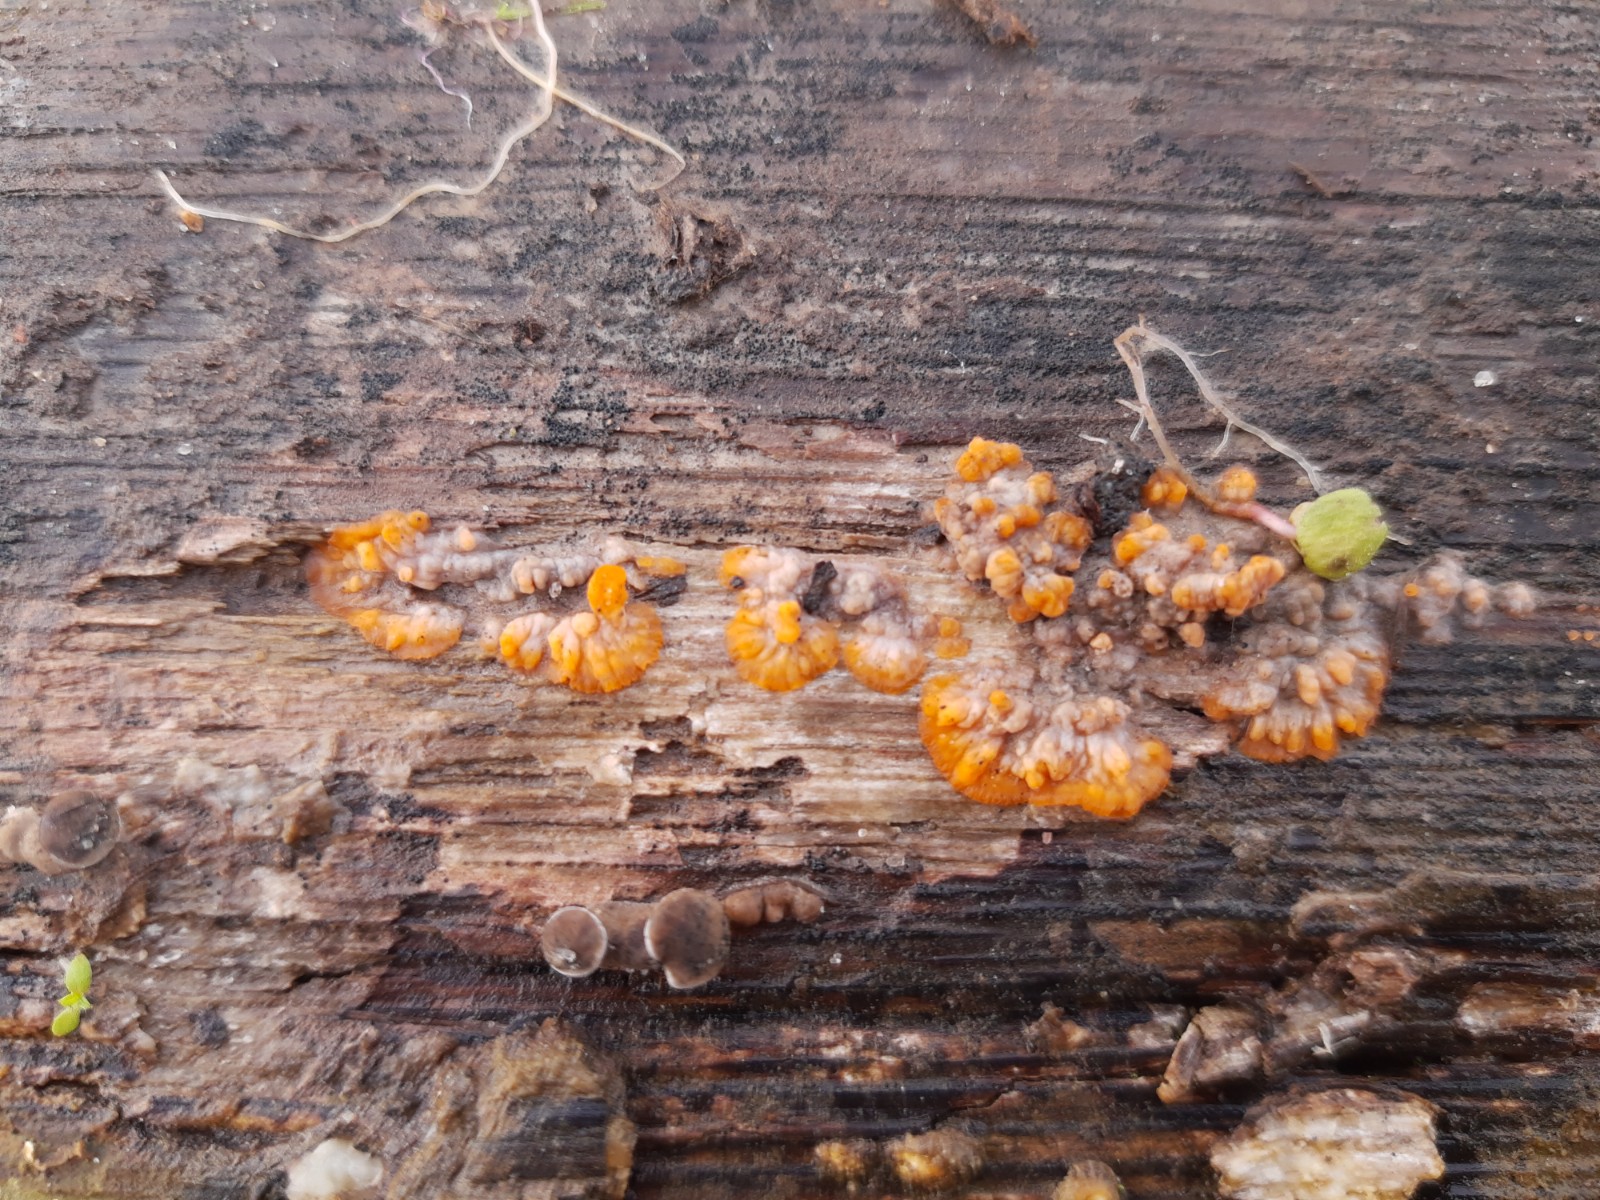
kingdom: Fungi
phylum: Basidiomycota
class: Agaricomycetes
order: Polyporales
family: Meruliaceae
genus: Phlebia
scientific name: Phlebia radiata
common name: stråle-åresvamp
